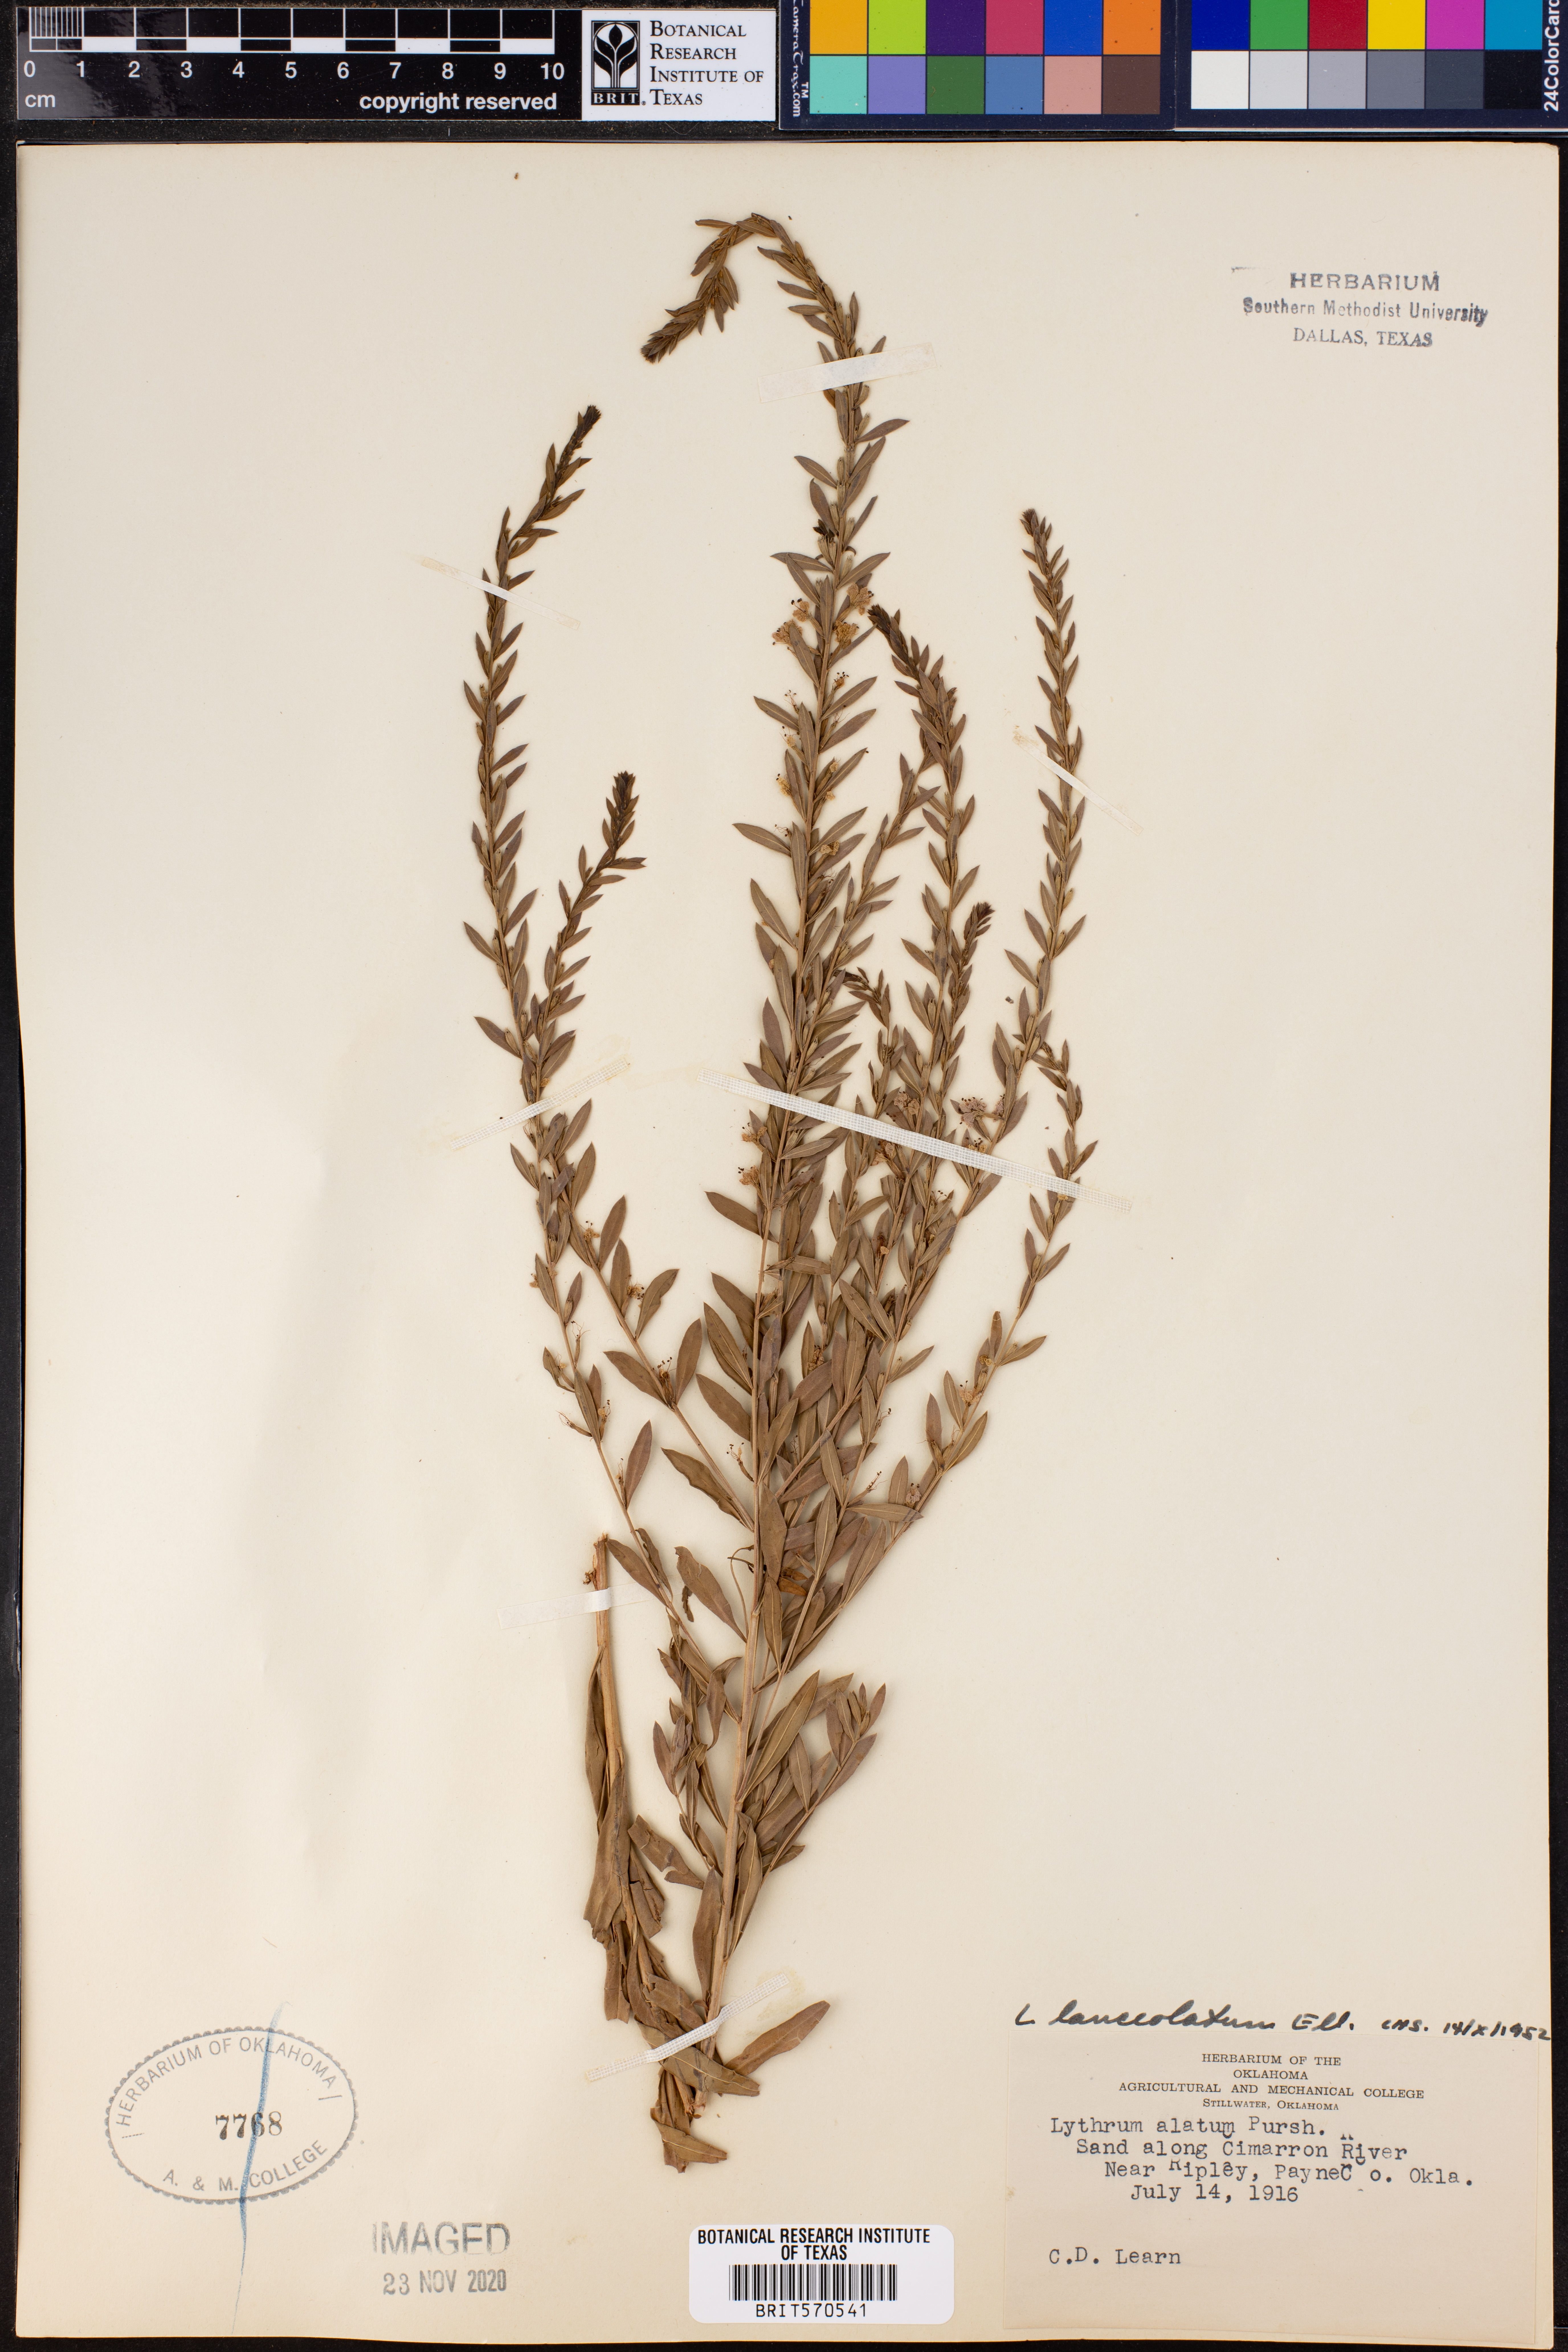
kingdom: Plantae
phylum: Tracheophyta
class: Magnoliopsida
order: Myrtales
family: Lythraceae
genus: Lythrum
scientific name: Lythrum alatum
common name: Winged loosestrife
